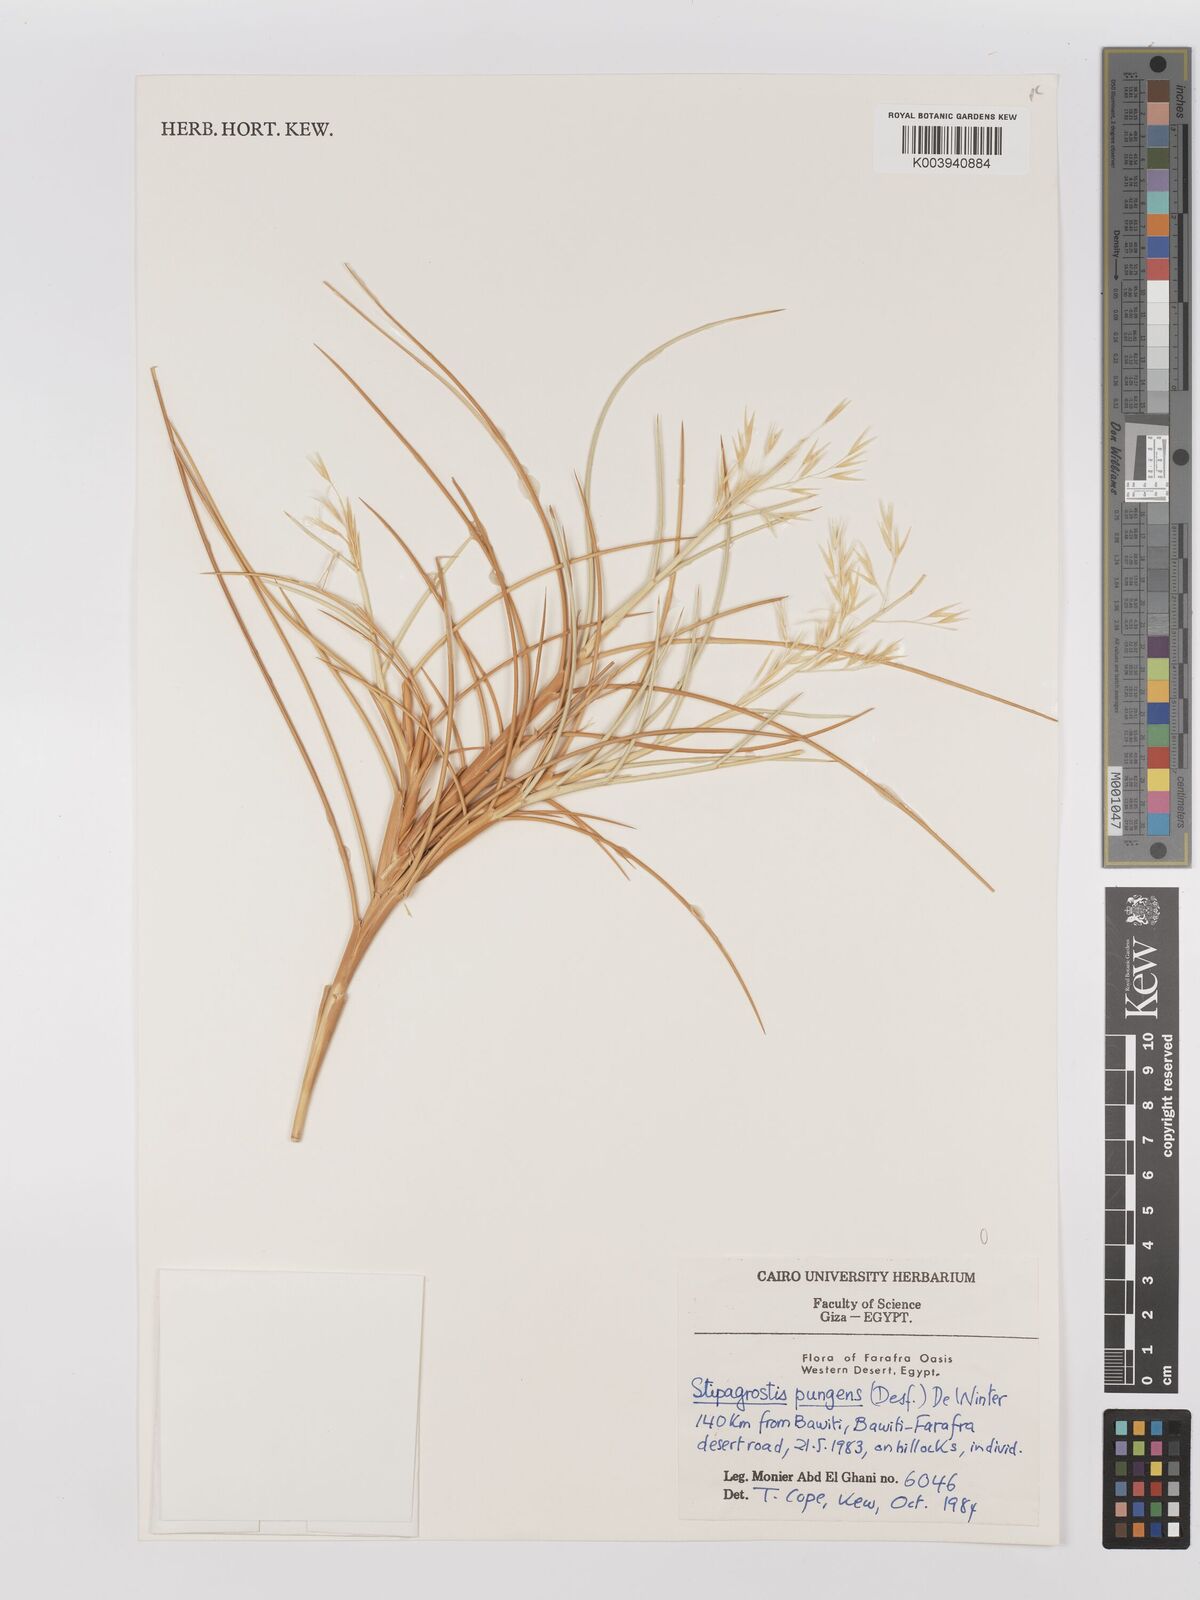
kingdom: Plantae
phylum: Tracheophyta
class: Liliopsida
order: Poales
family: Poaceae
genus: Stipagrostis
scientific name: Stipagrostis vulnerans
